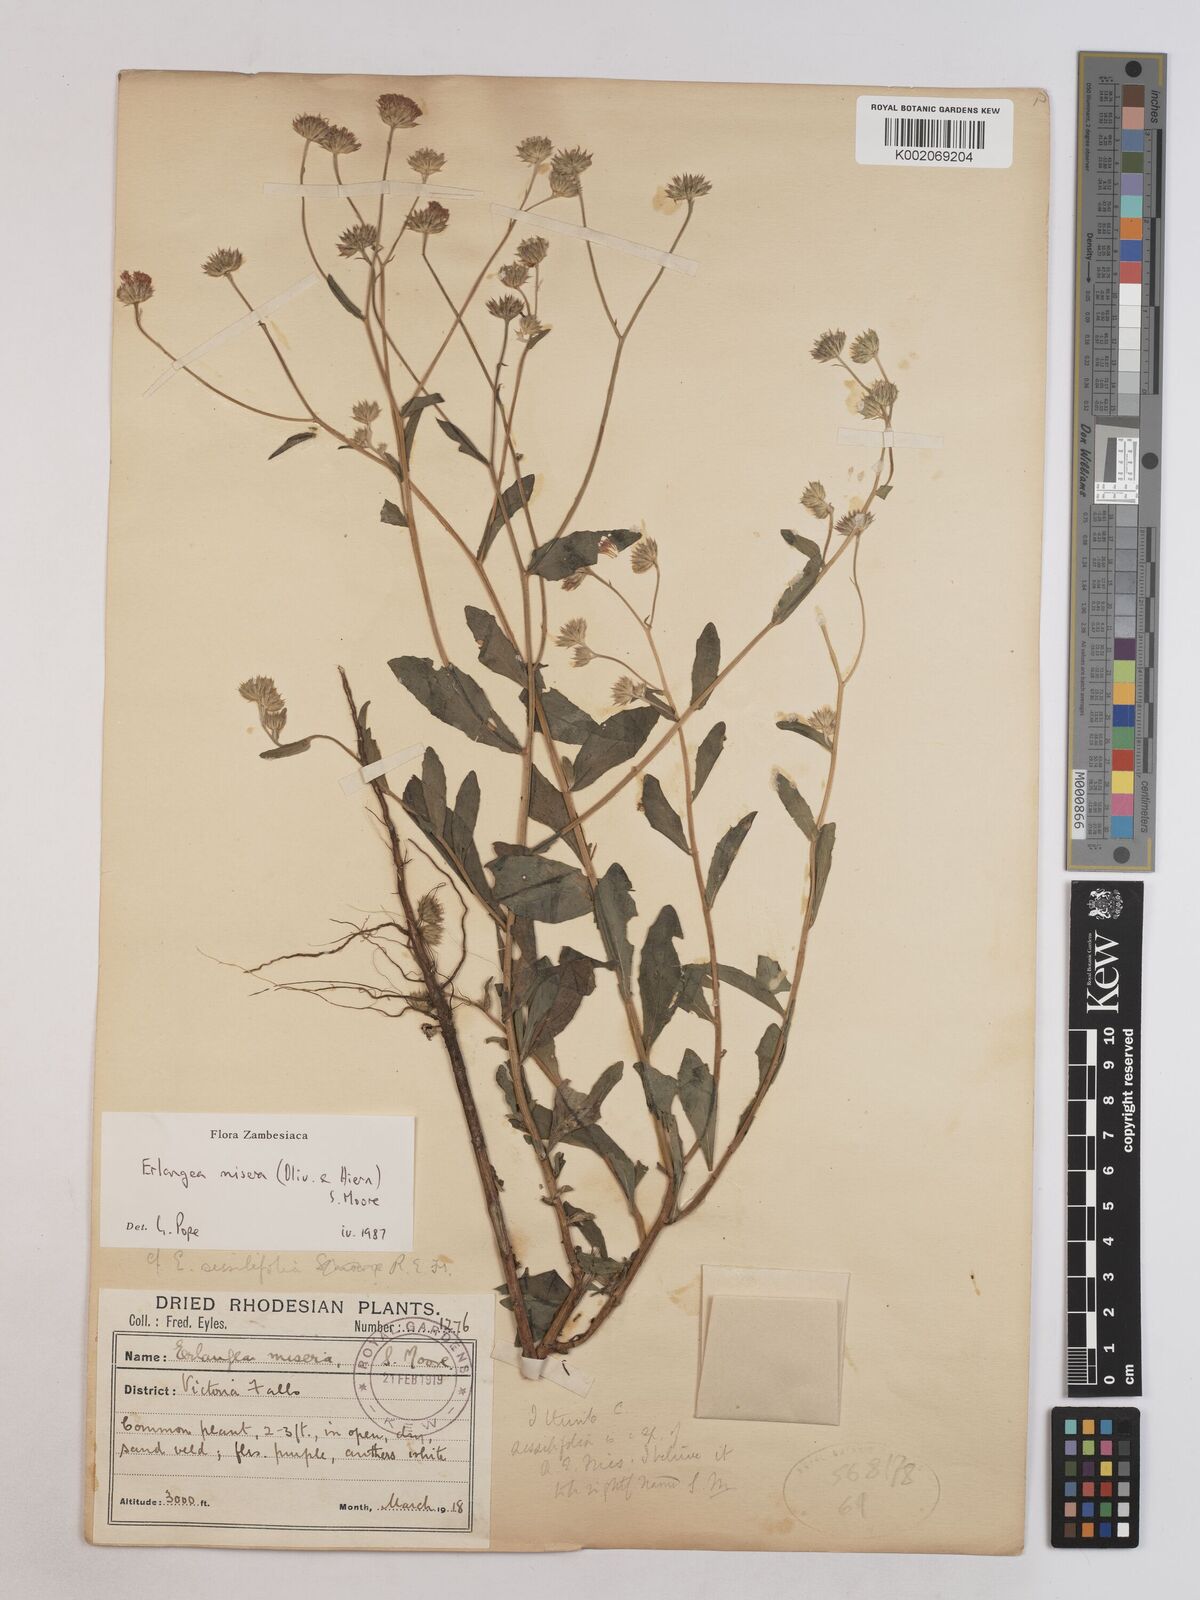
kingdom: Plantae
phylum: Tracheophyta
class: Magnoliopsida
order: Asterales
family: Asteraceae
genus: Erlangea
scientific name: Erlangea misera
